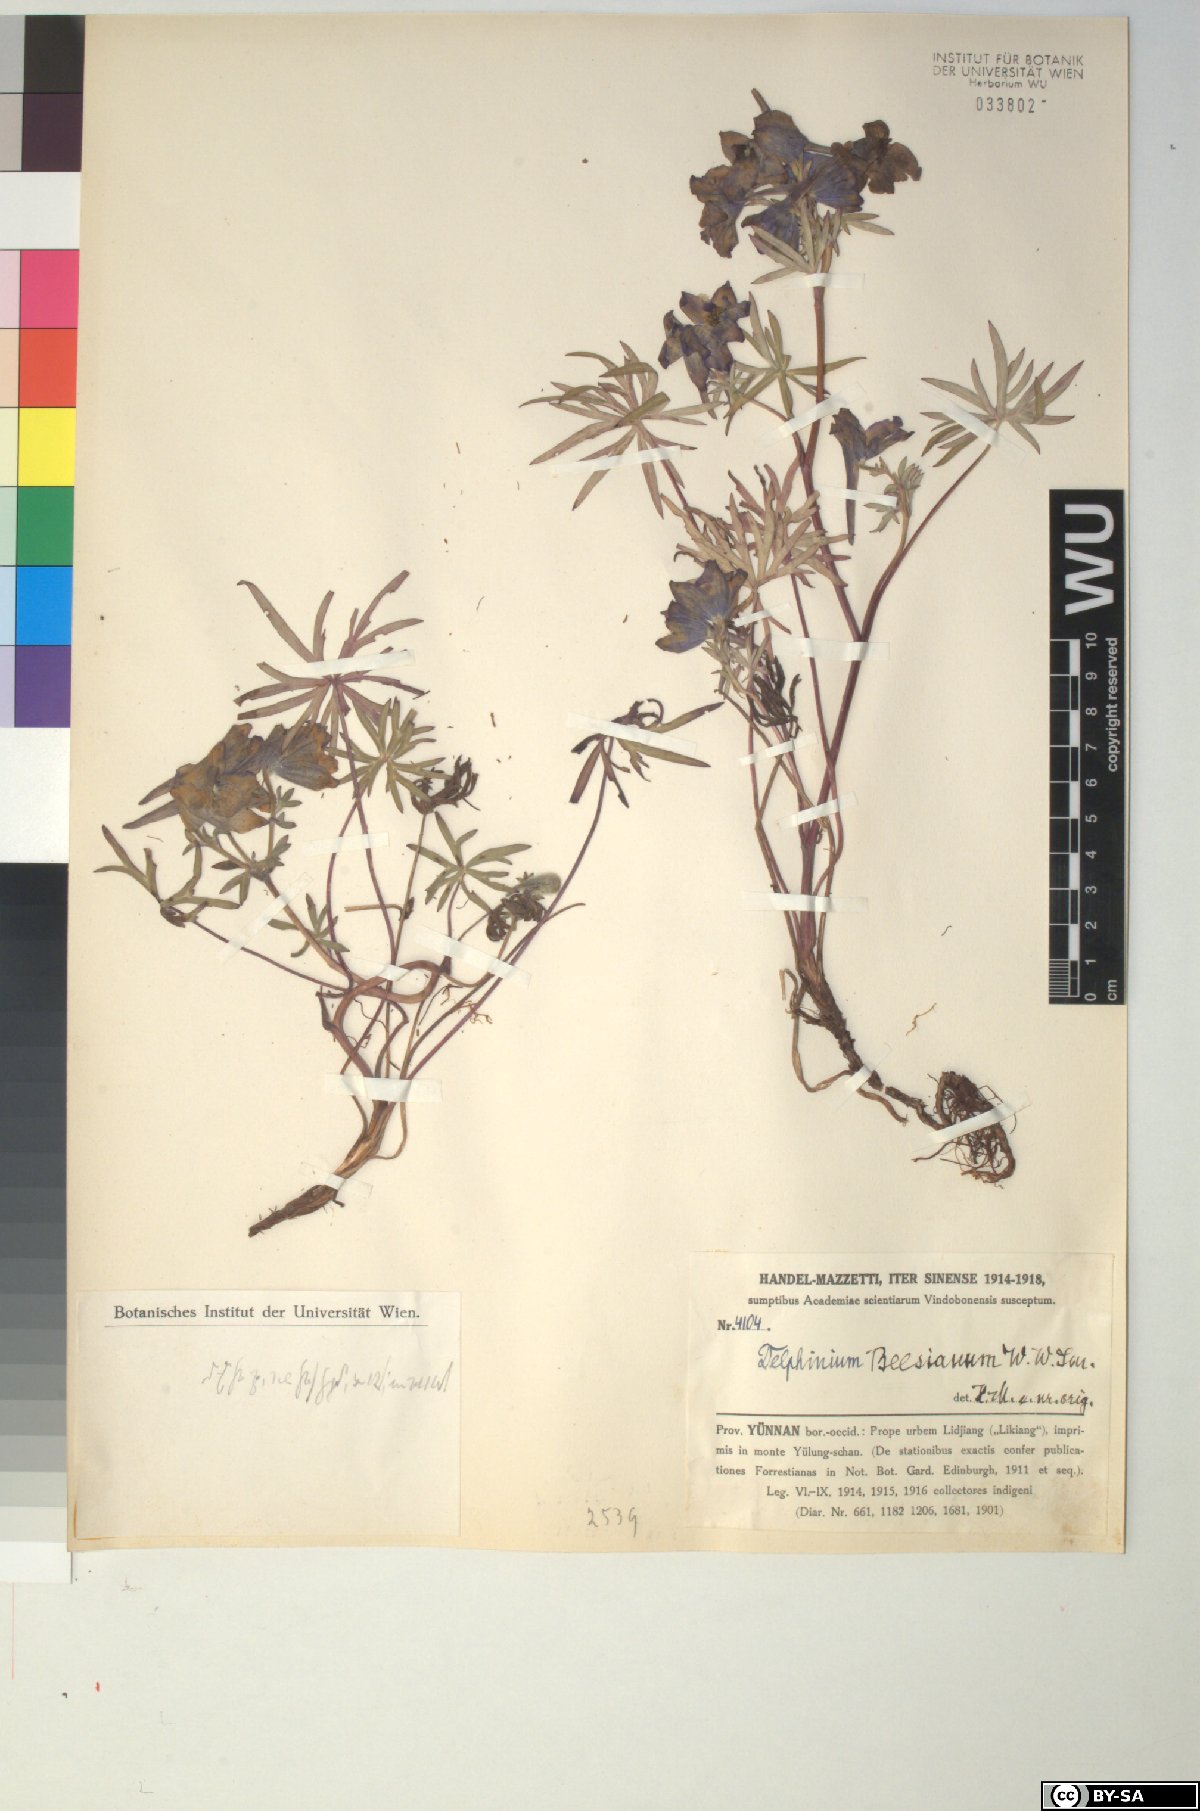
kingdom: Plantae
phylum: Tracheophyta
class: Magnoliopsida
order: Ranunculales
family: Ranunculaceae
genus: Delphinium
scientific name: Delphinium beesianum
